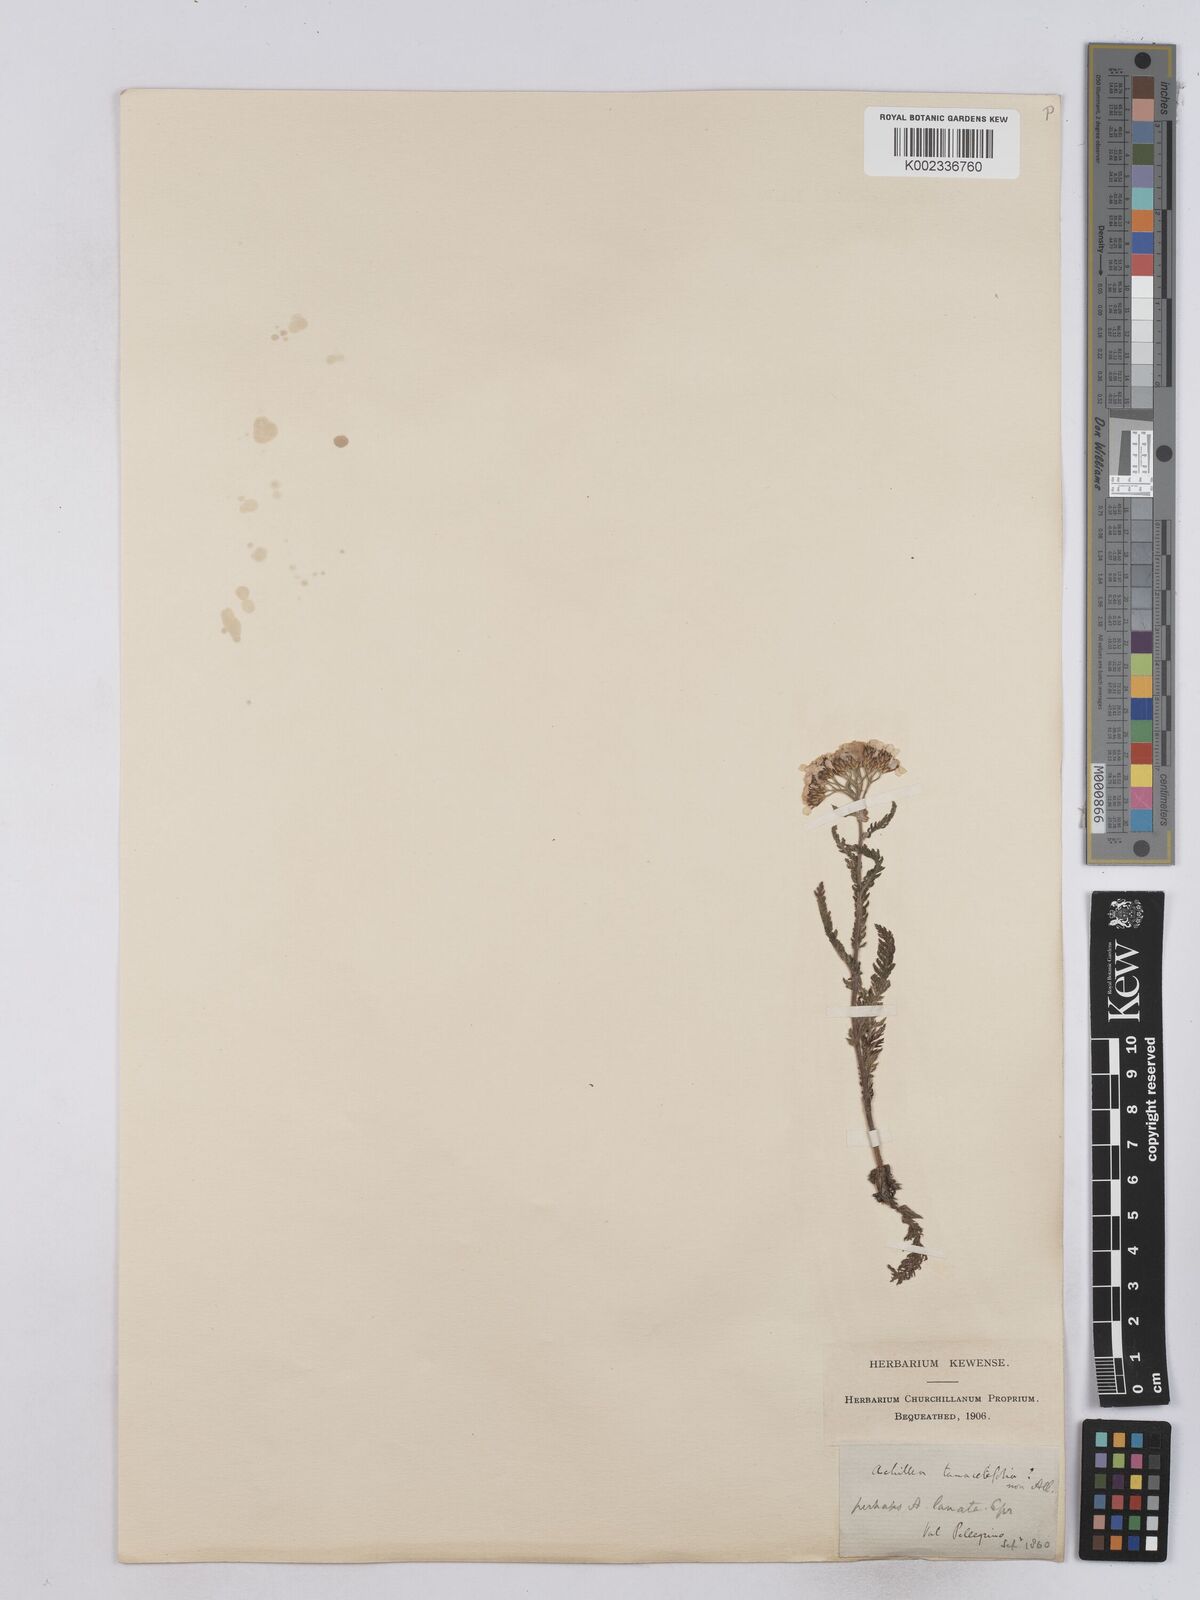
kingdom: Plantae
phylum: Tracheophyta
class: Magnoliopsida
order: Asterales
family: Asteraceae
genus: Achillea
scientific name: Achillea setacea
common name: Bristly yarrow
